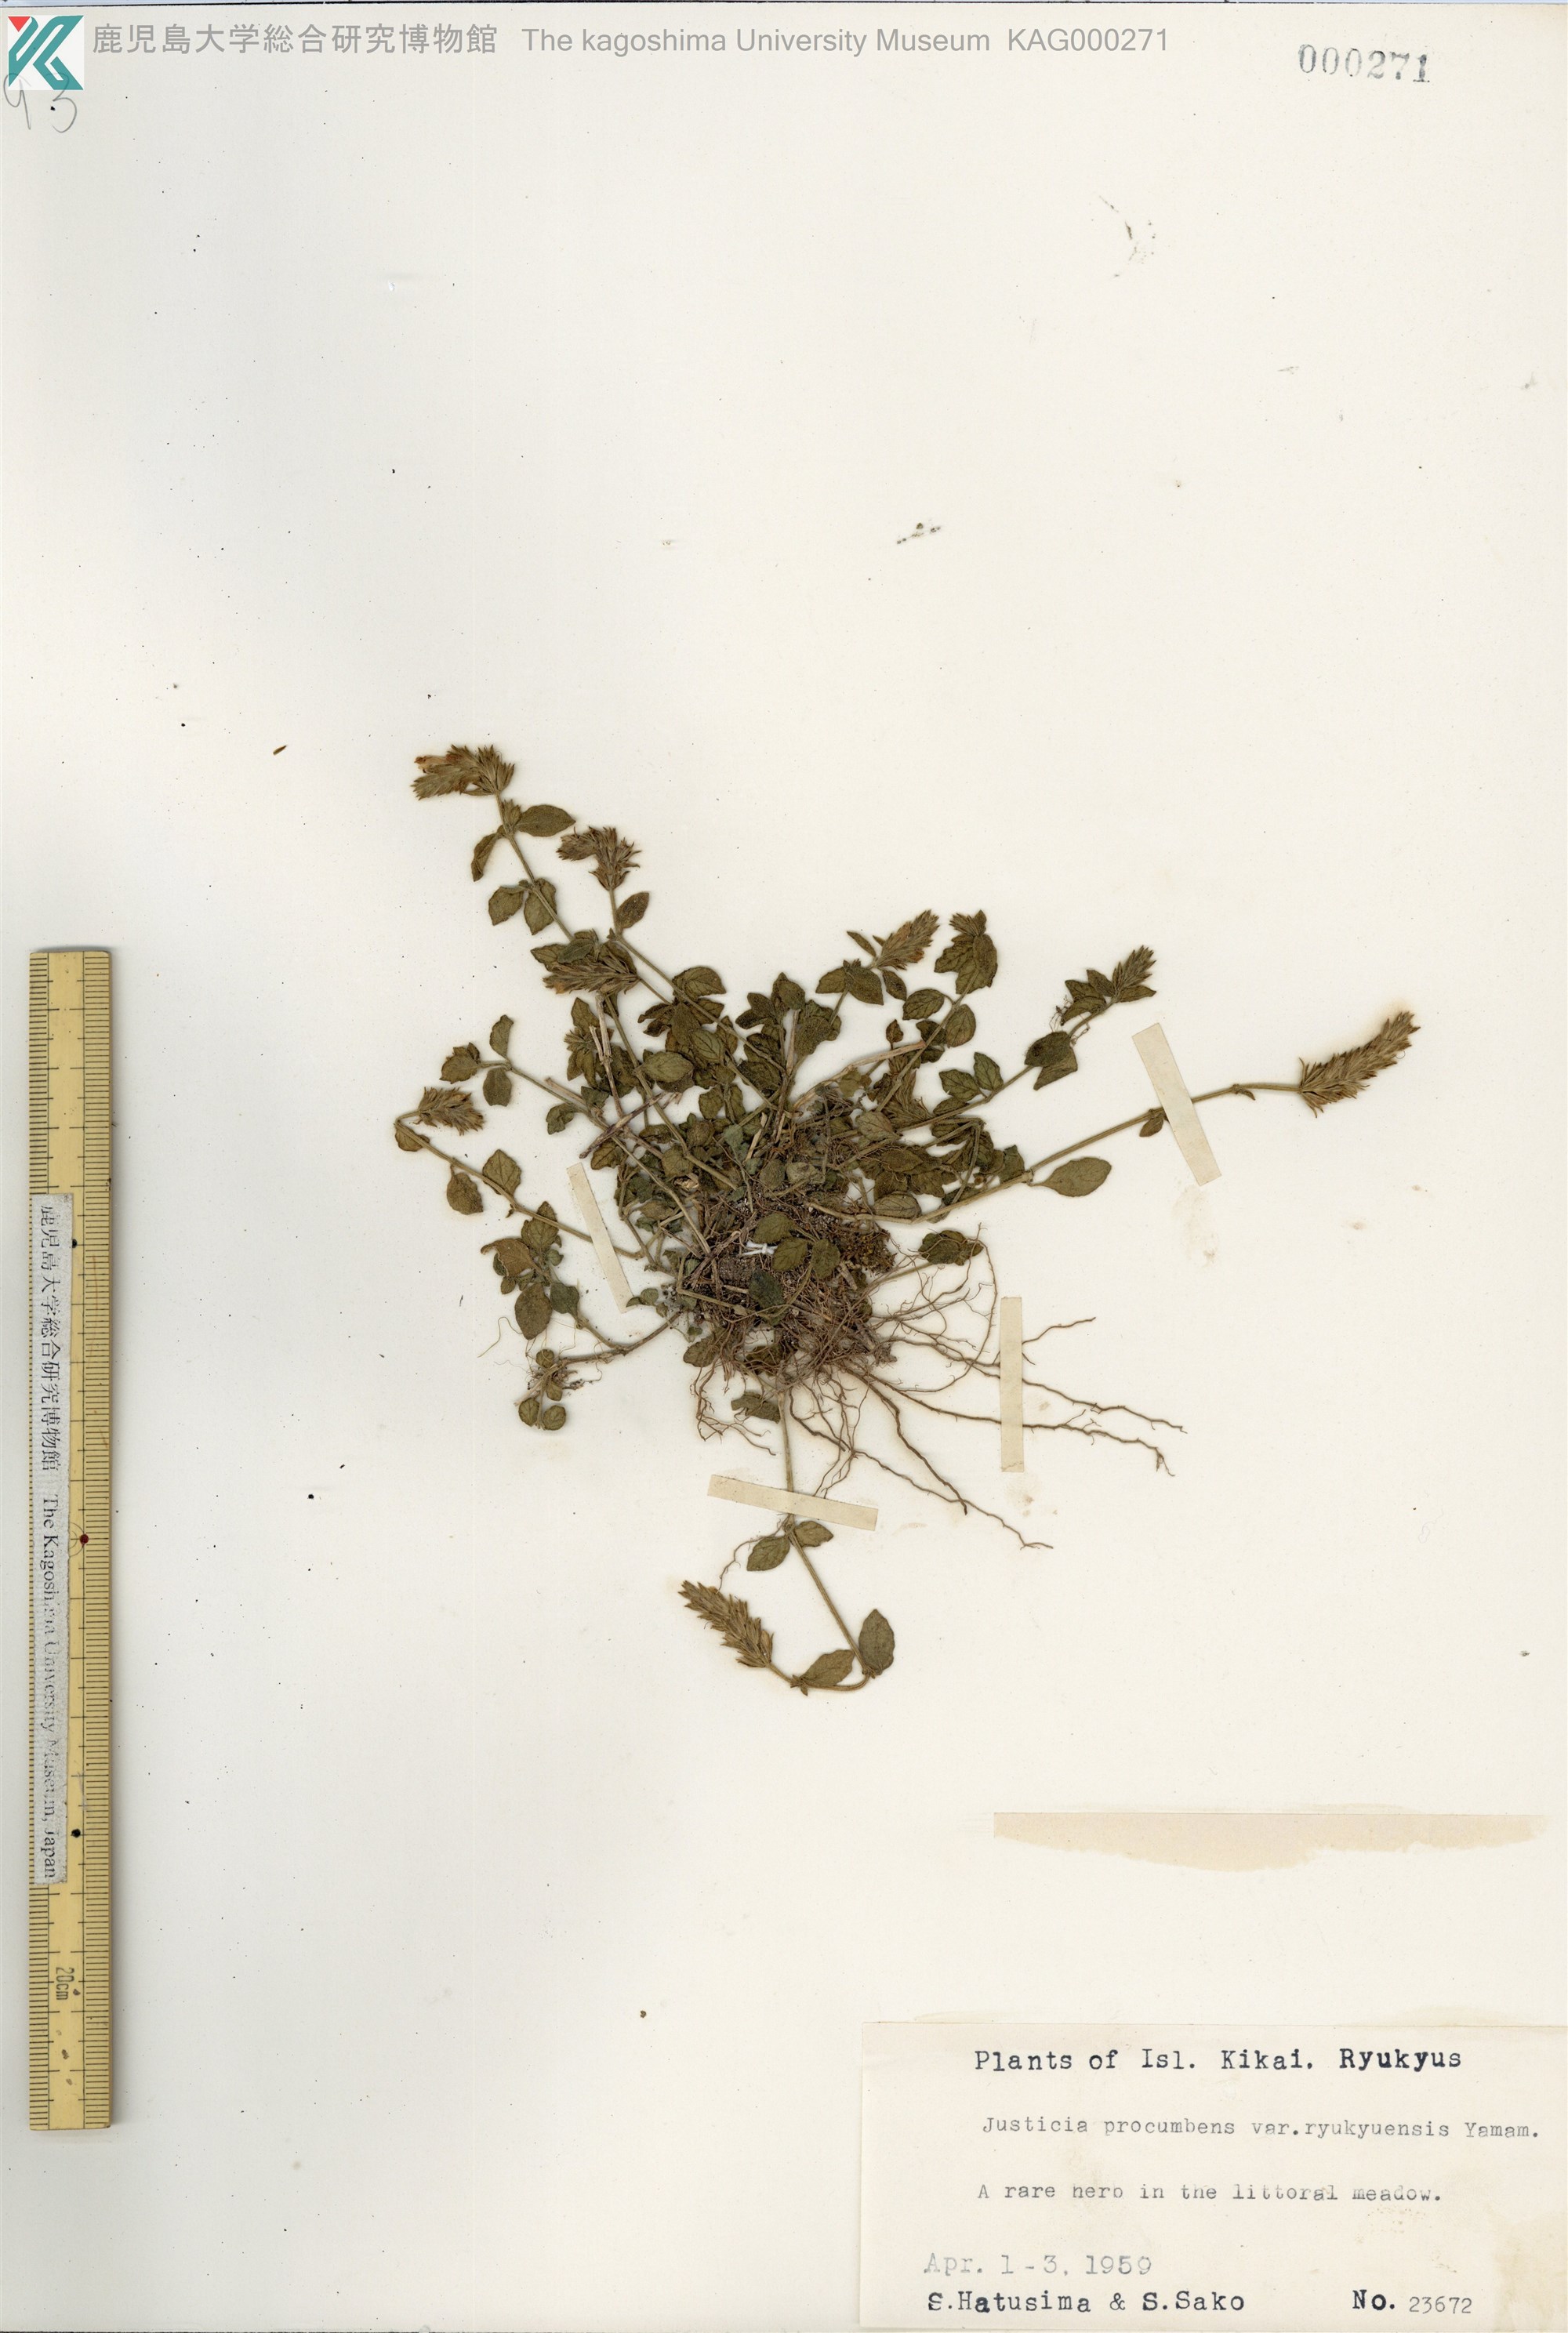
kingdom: Plantae
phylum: Tracheophyta
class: Magnoliopsida
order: Lamiales
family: Acanthaceae
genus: Rostellularia
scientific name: Rostellularia procumbens
